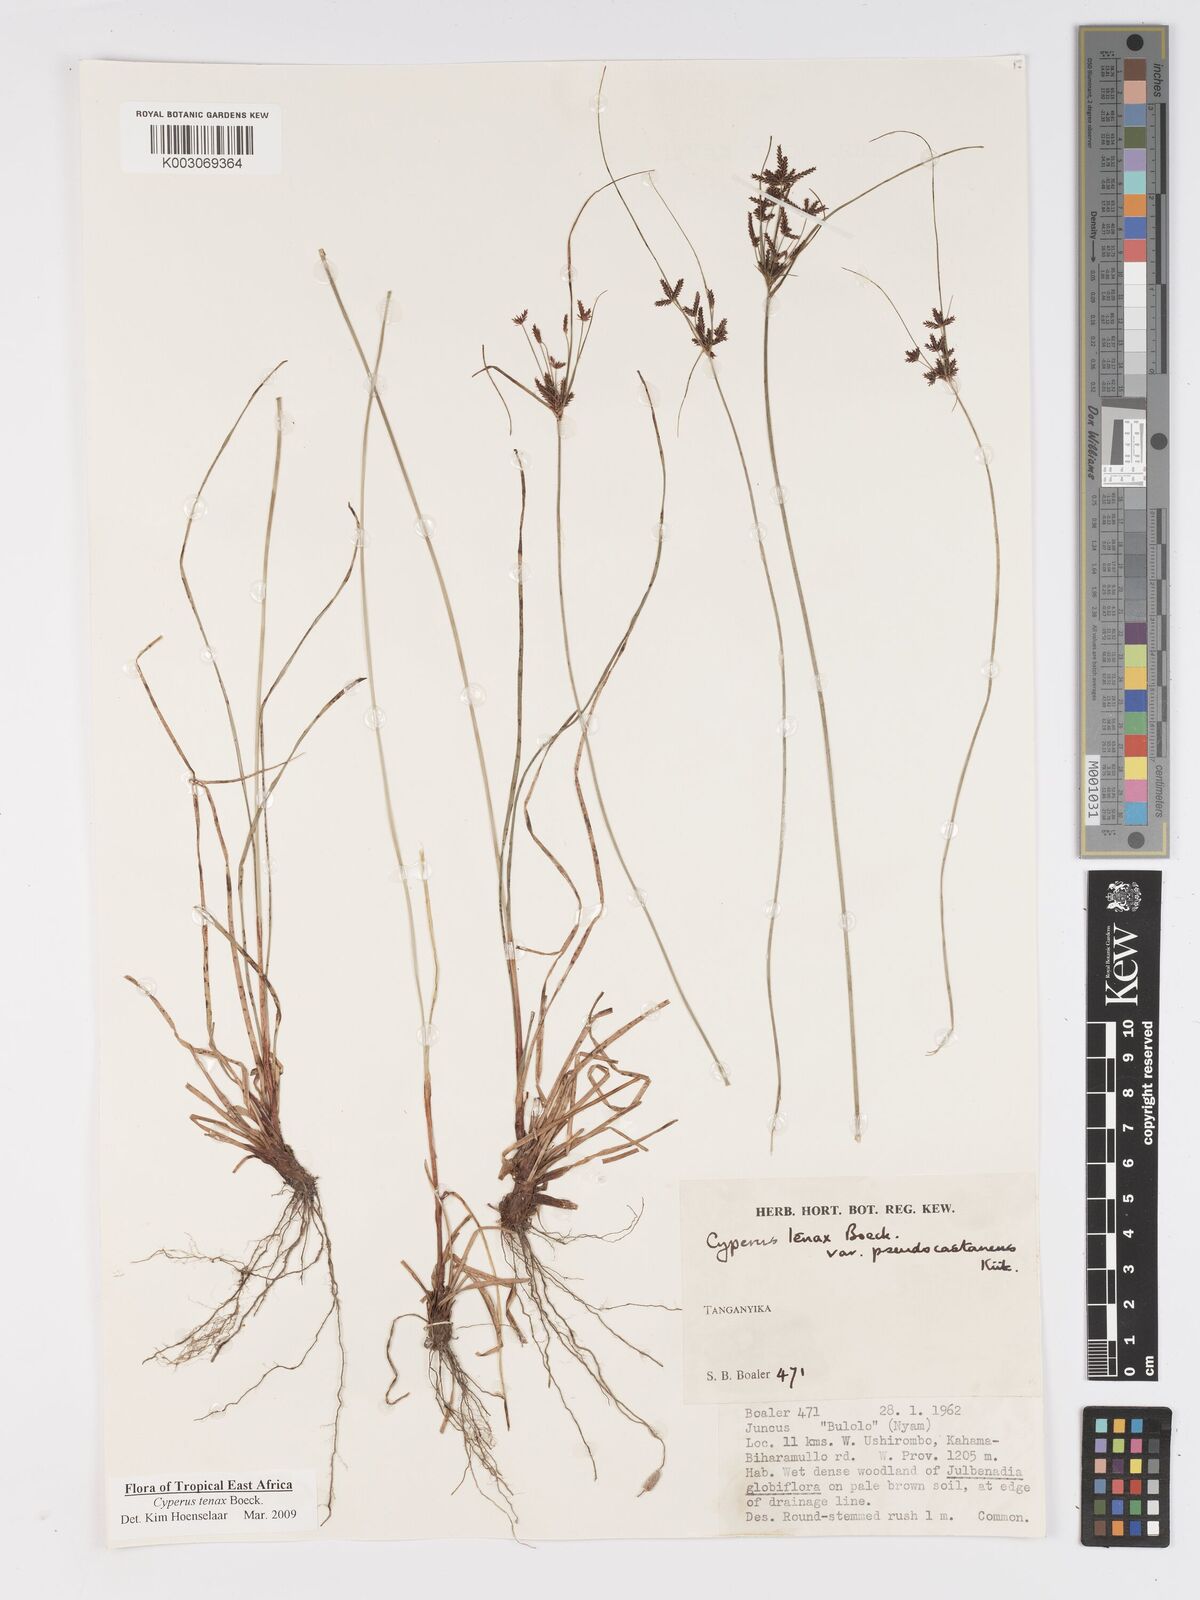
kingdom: Plantae
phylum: Tracheophyta
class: Liliopsida
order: Poales
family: Cyperaceae
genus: Cyperus
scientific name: Cyperus tenax
